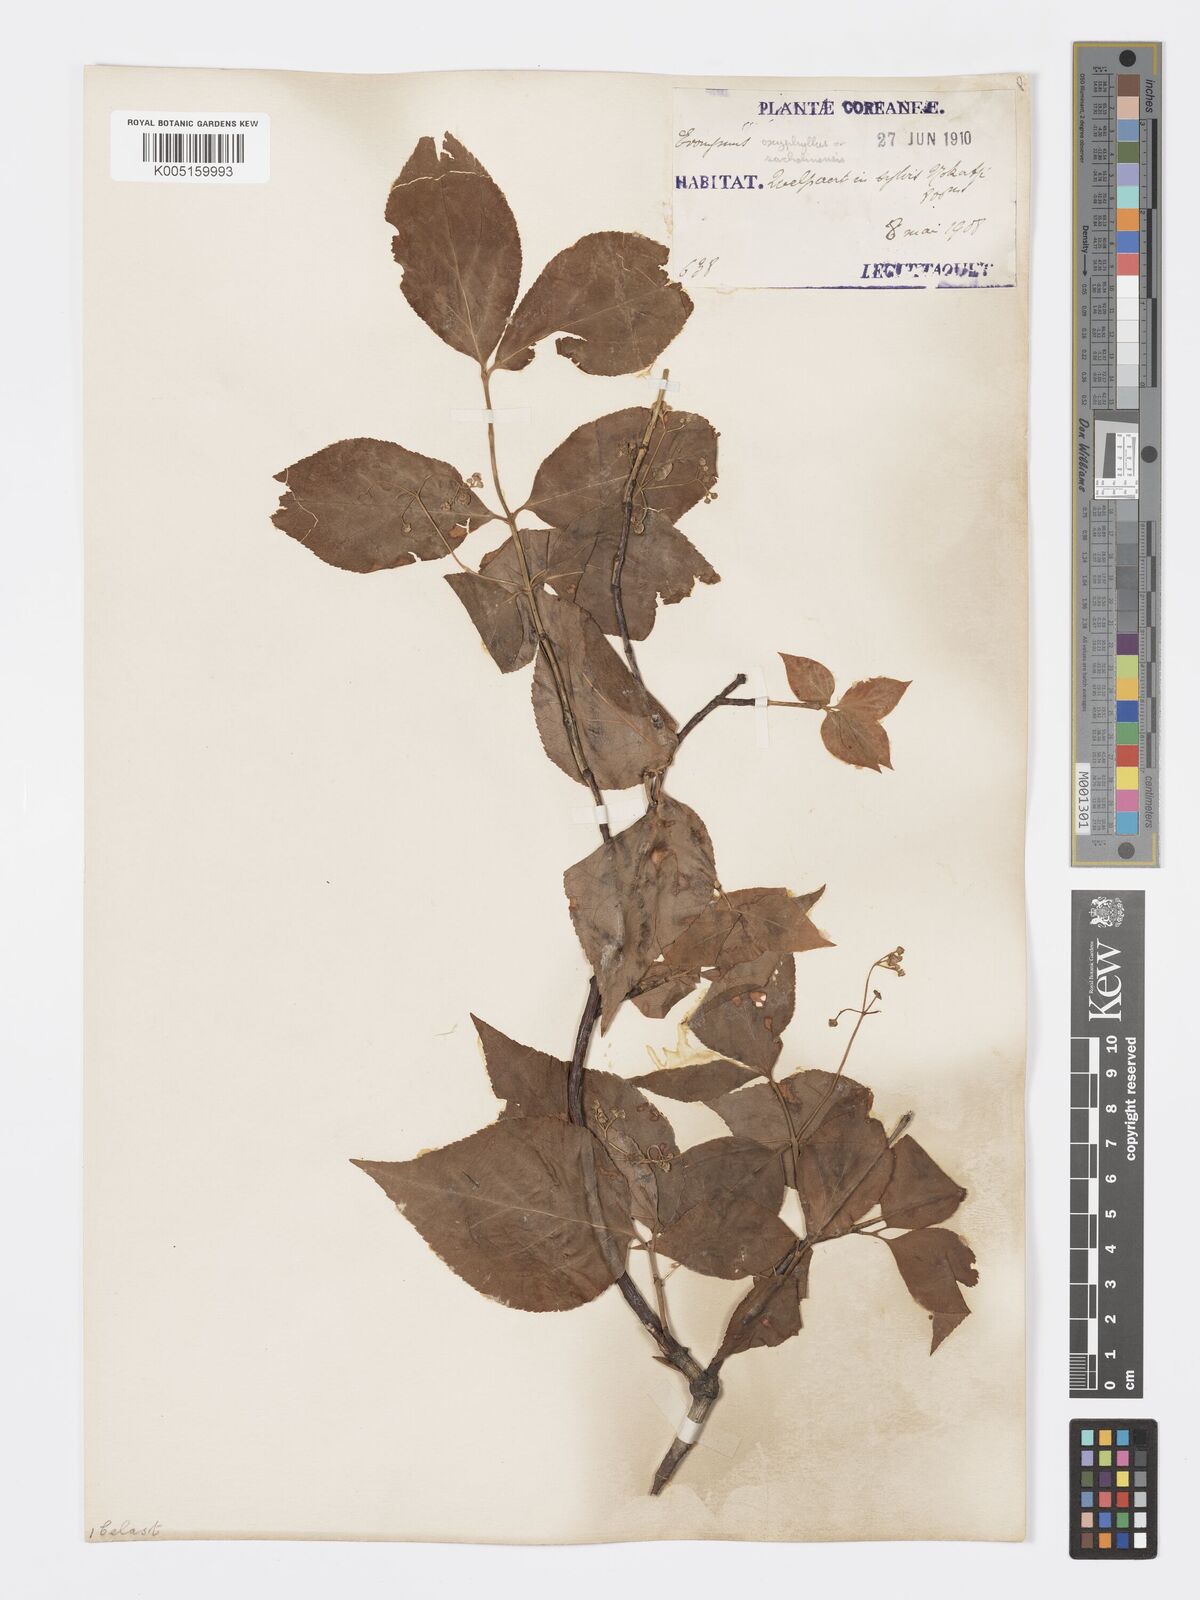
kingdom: Plantae
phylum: Tracheophyta
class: Magnoliopsida
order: Celastrales
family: Celastraceae
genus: Euonymus
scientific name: Euonymus sachalinensis
